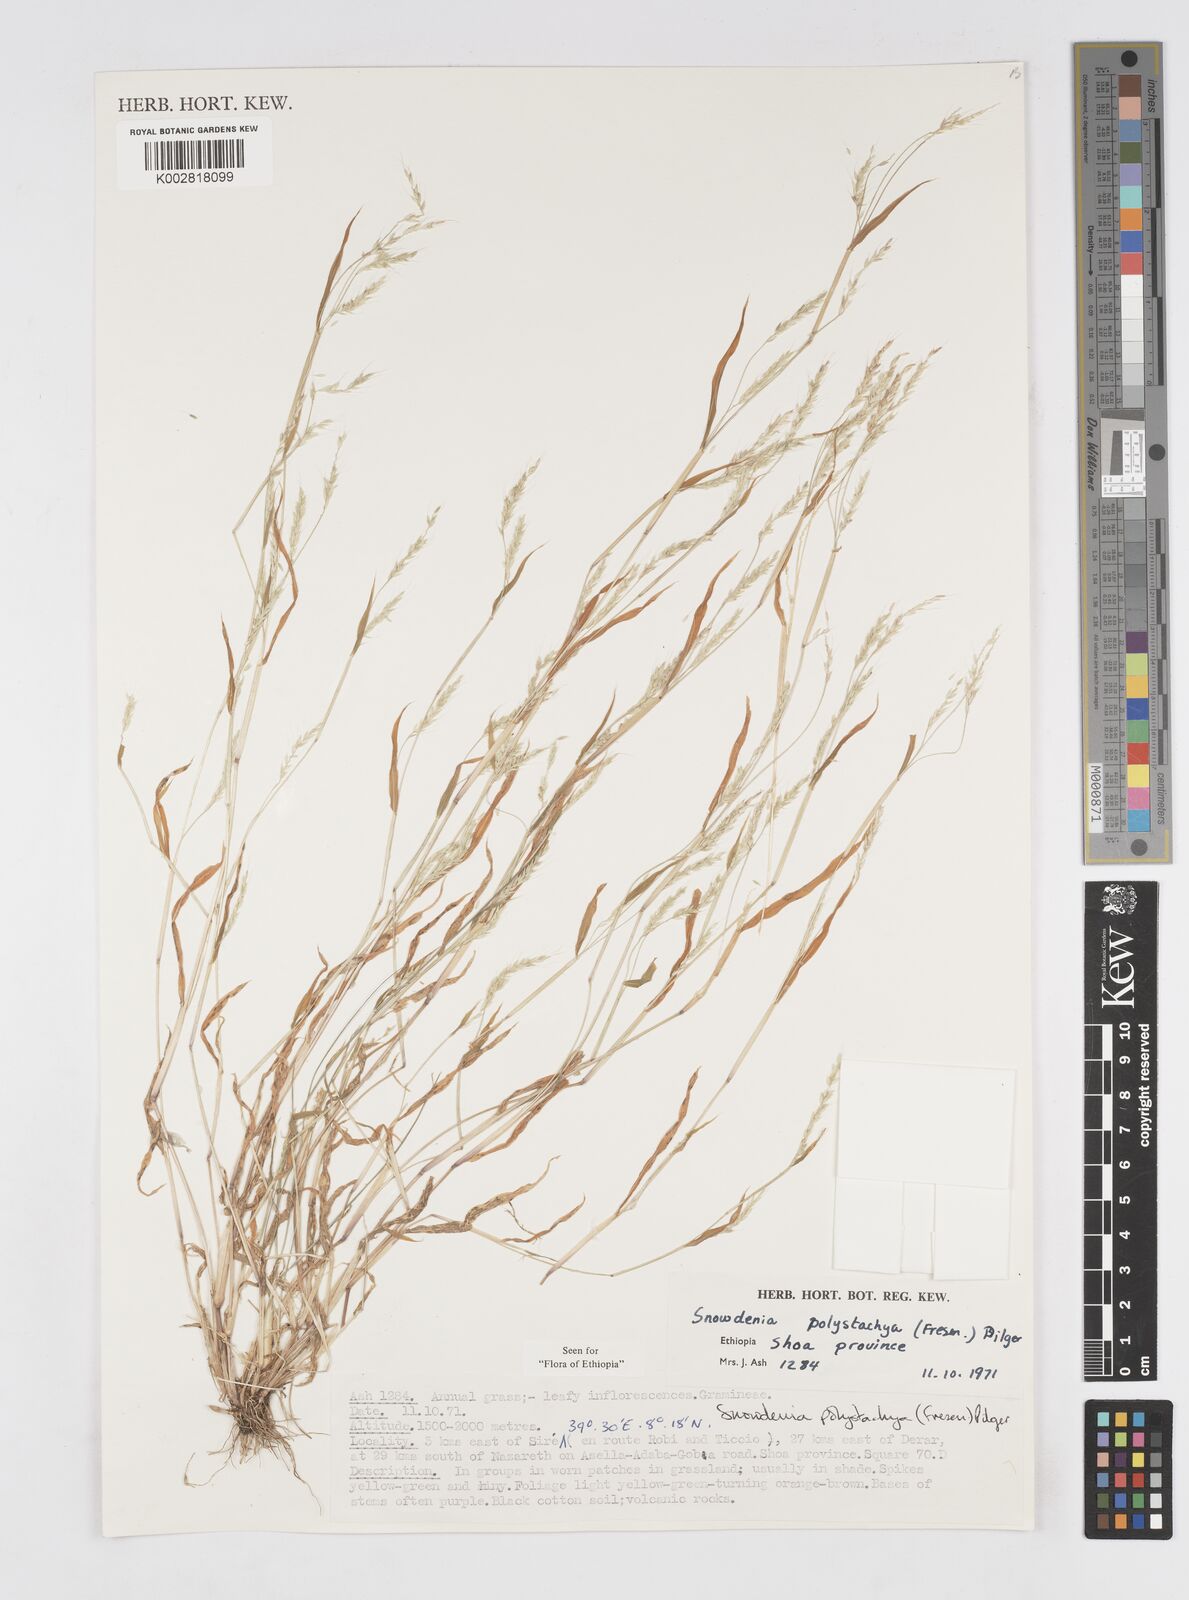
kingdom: Plantae
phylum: Tracheophyta
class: Liliopsida
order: Poales
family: Poaceae
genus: Snowdenia
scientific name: Snowdenia polystachya
